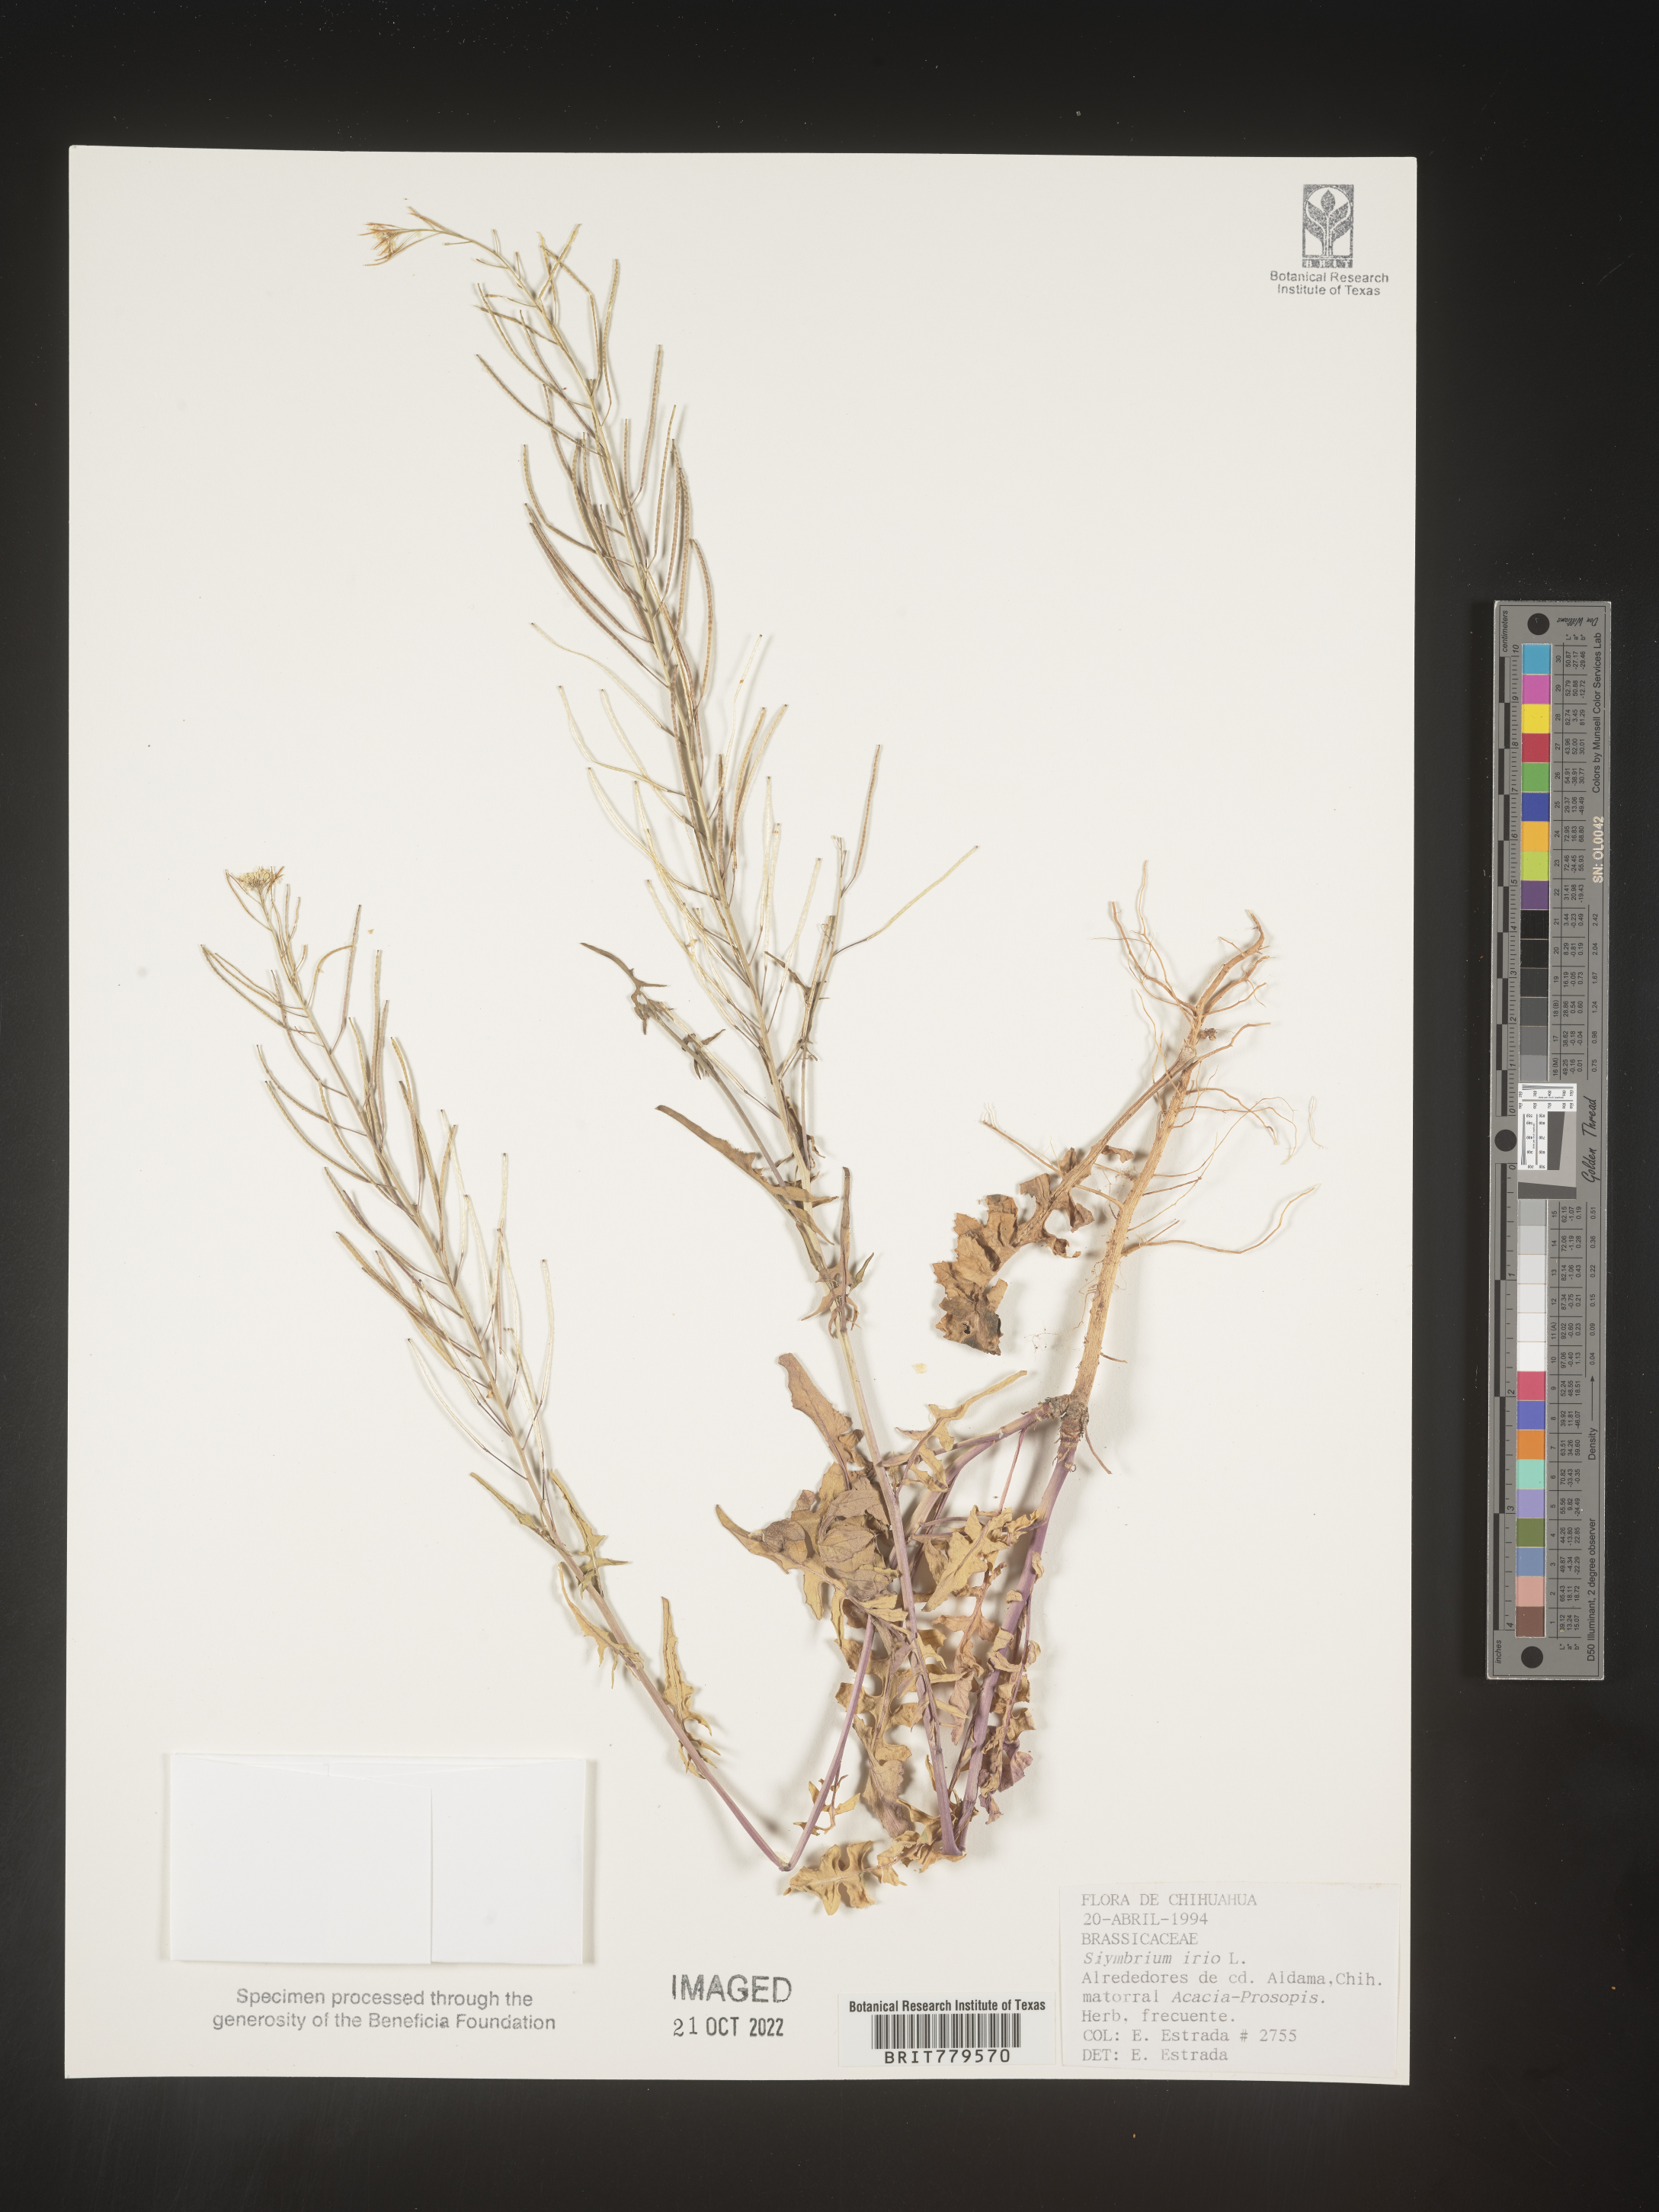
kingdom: Plantae
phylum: Tracheophyta
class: Magnoliopsida
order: Brassicales
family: Brassicaceae
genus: Sisymbrium
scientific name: Sisymbrium
